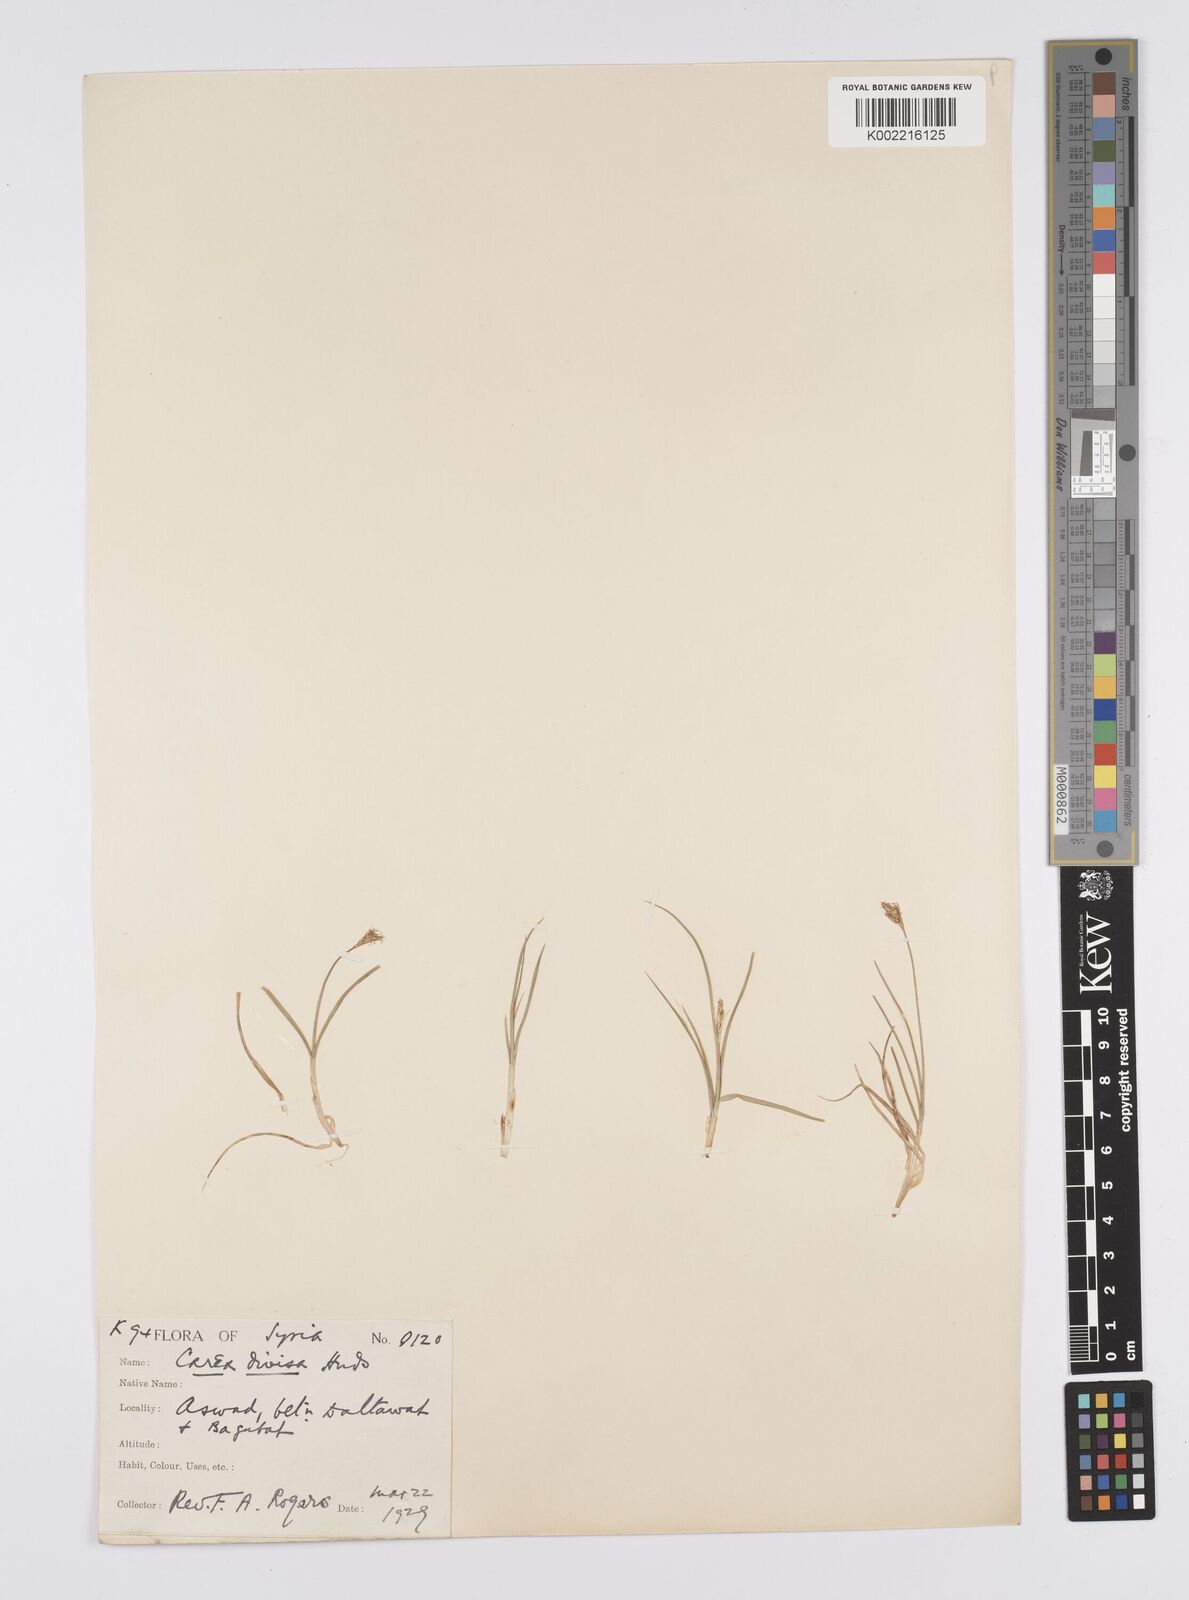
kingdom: Plantae
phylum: Tracheophyta
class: Liliopsida
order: Poales
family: Cyperaceae
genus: Carex
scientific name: Carex divisa
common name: Divided sedge
